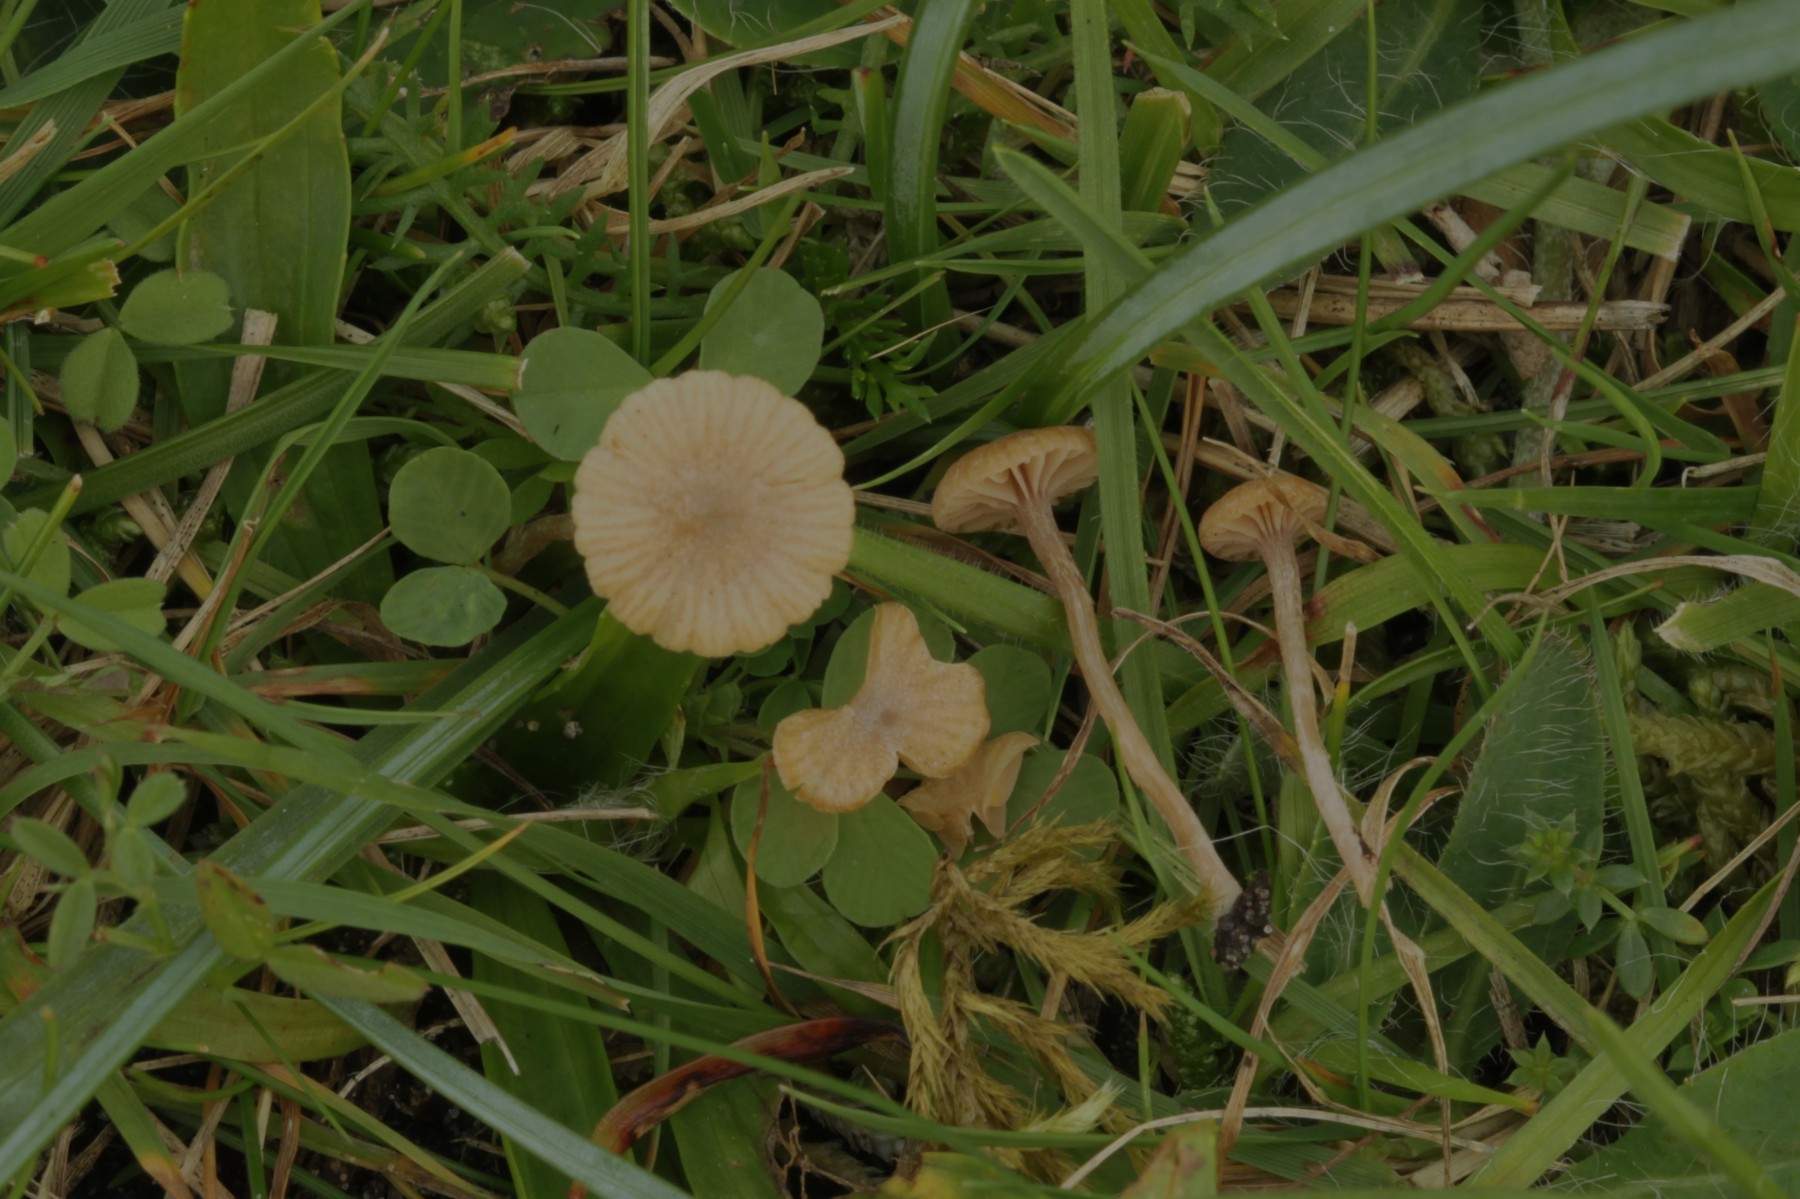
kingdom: Fungi
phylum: Basidiomycota
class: Agaricomycetes
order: Agaricales
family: Tubariaceae
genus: Tubaria
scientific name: Tubaria
